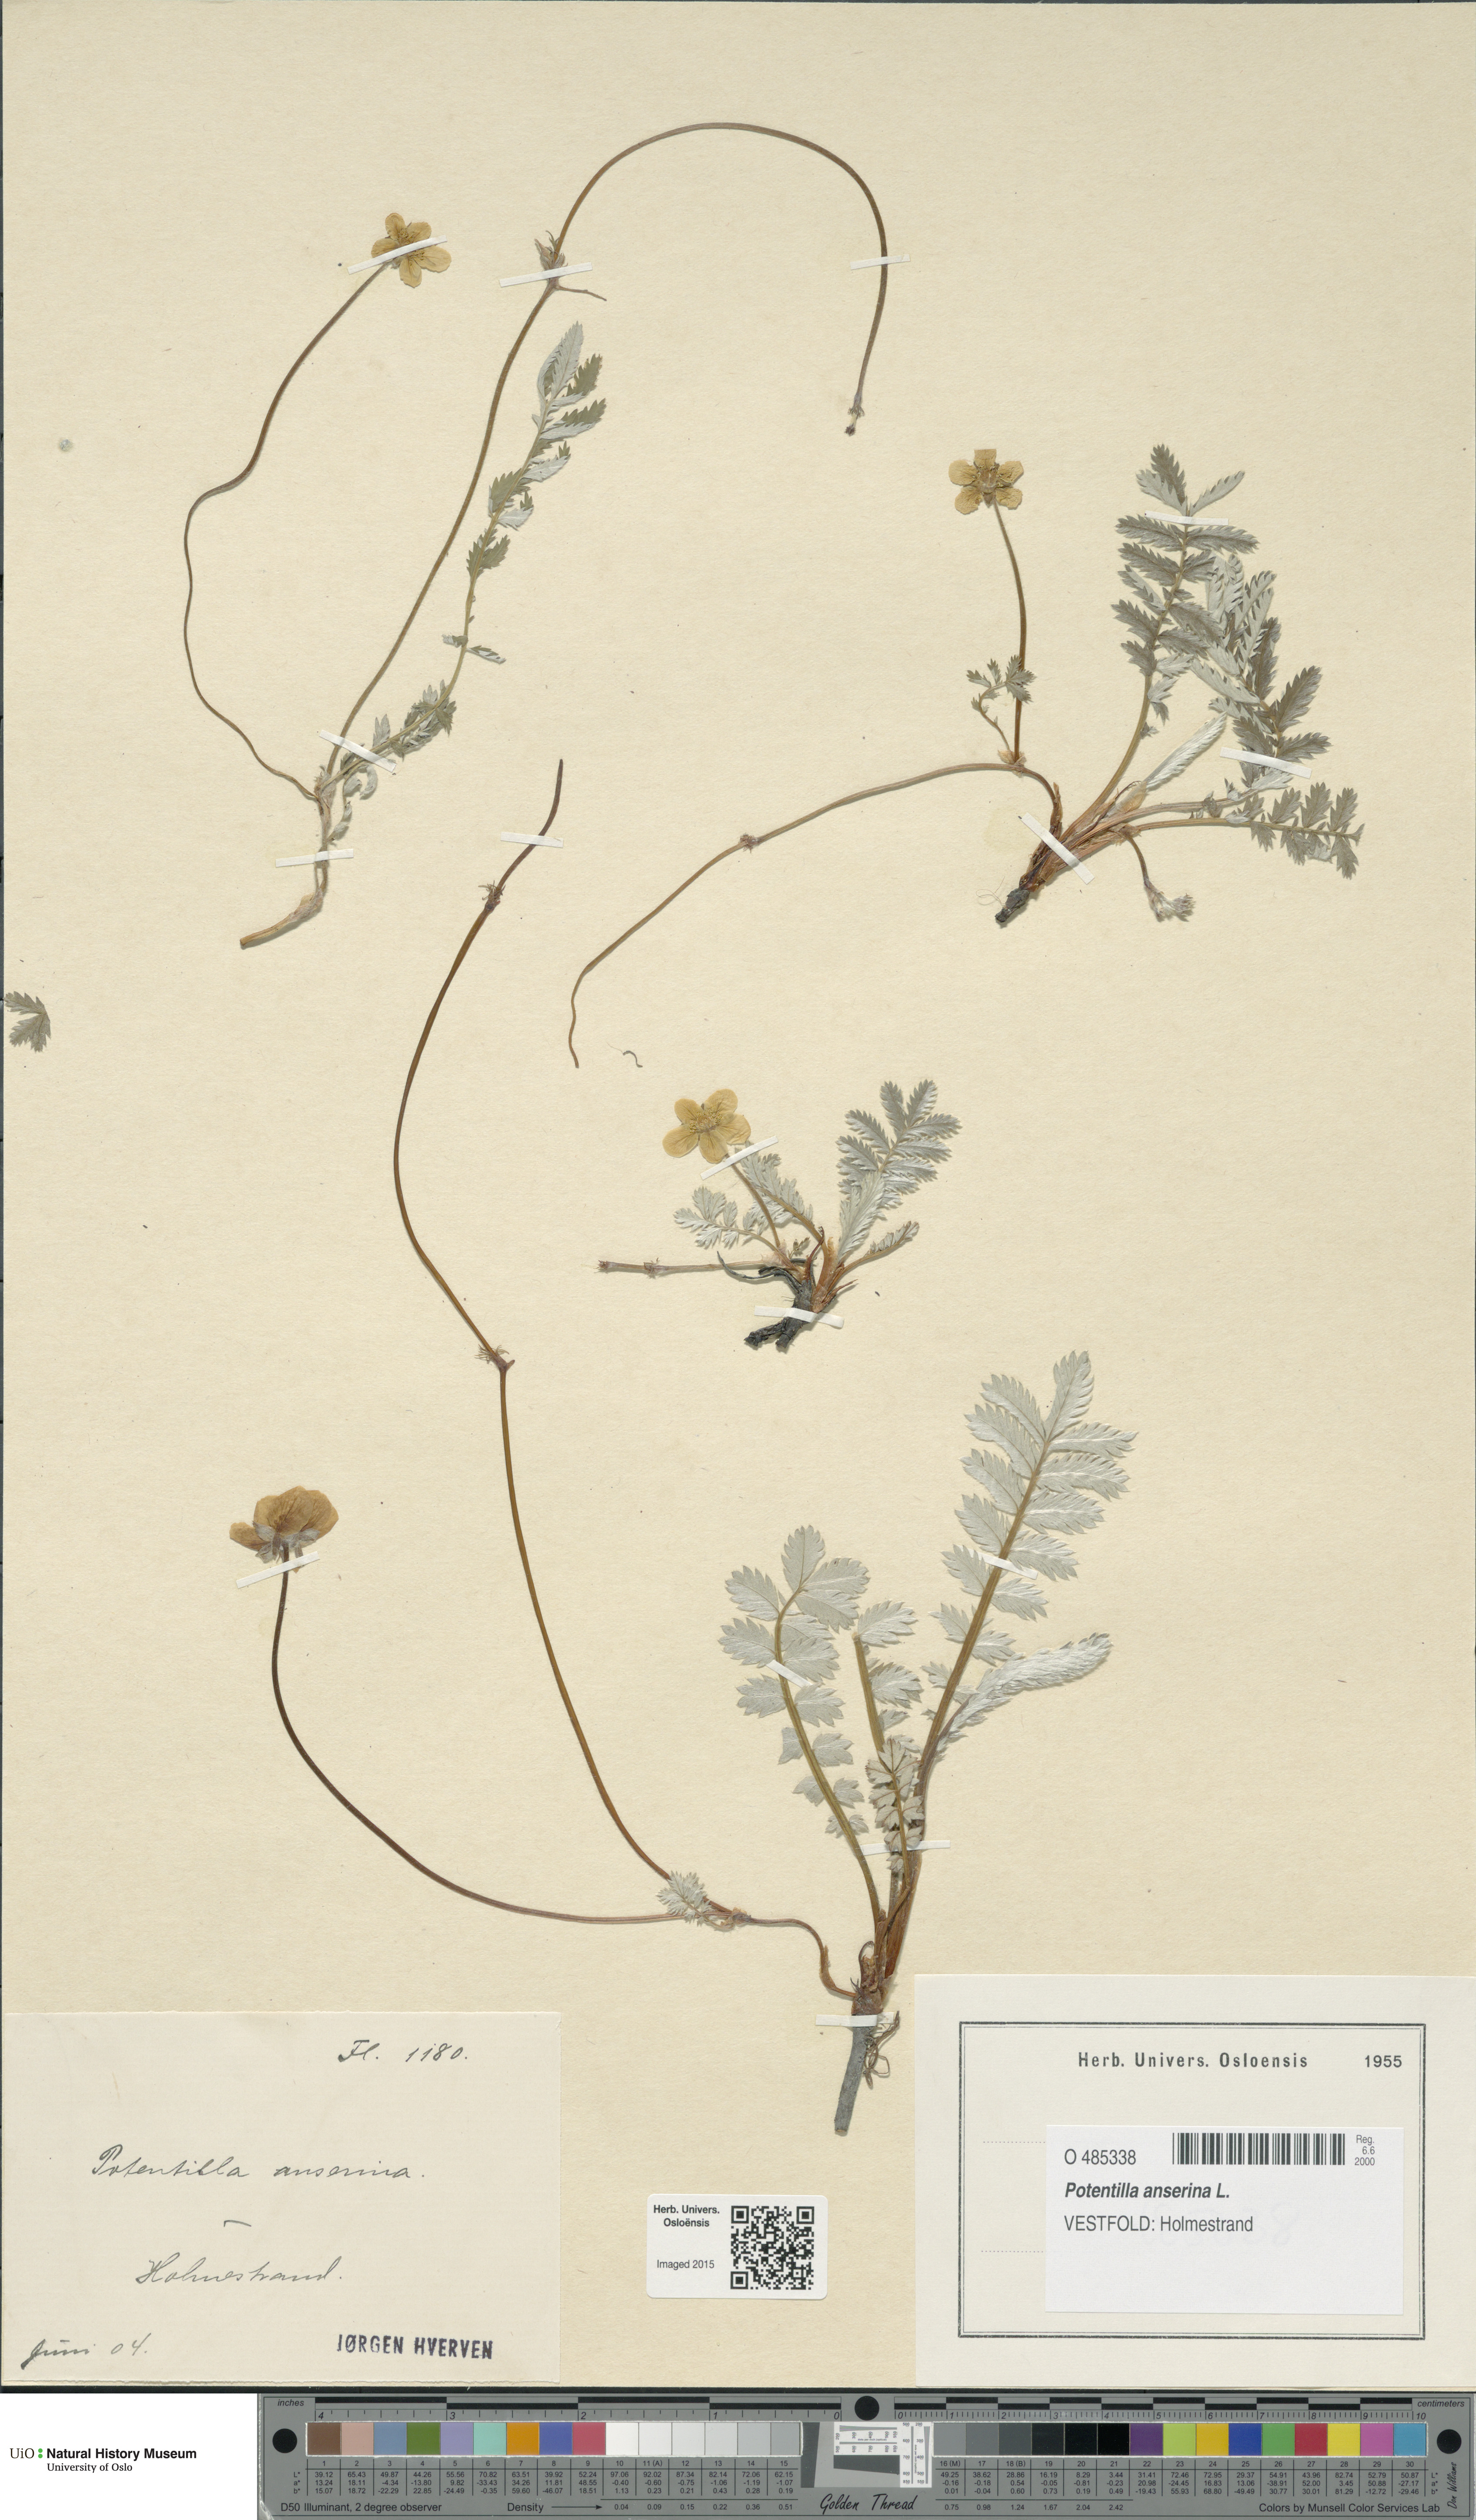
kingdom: Plantae
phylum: Tracheophyta
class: Magnoliopsida
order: Rosales
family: Rosaceae
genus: Argentina
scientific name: Argentina anserina
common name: Common silverweed
